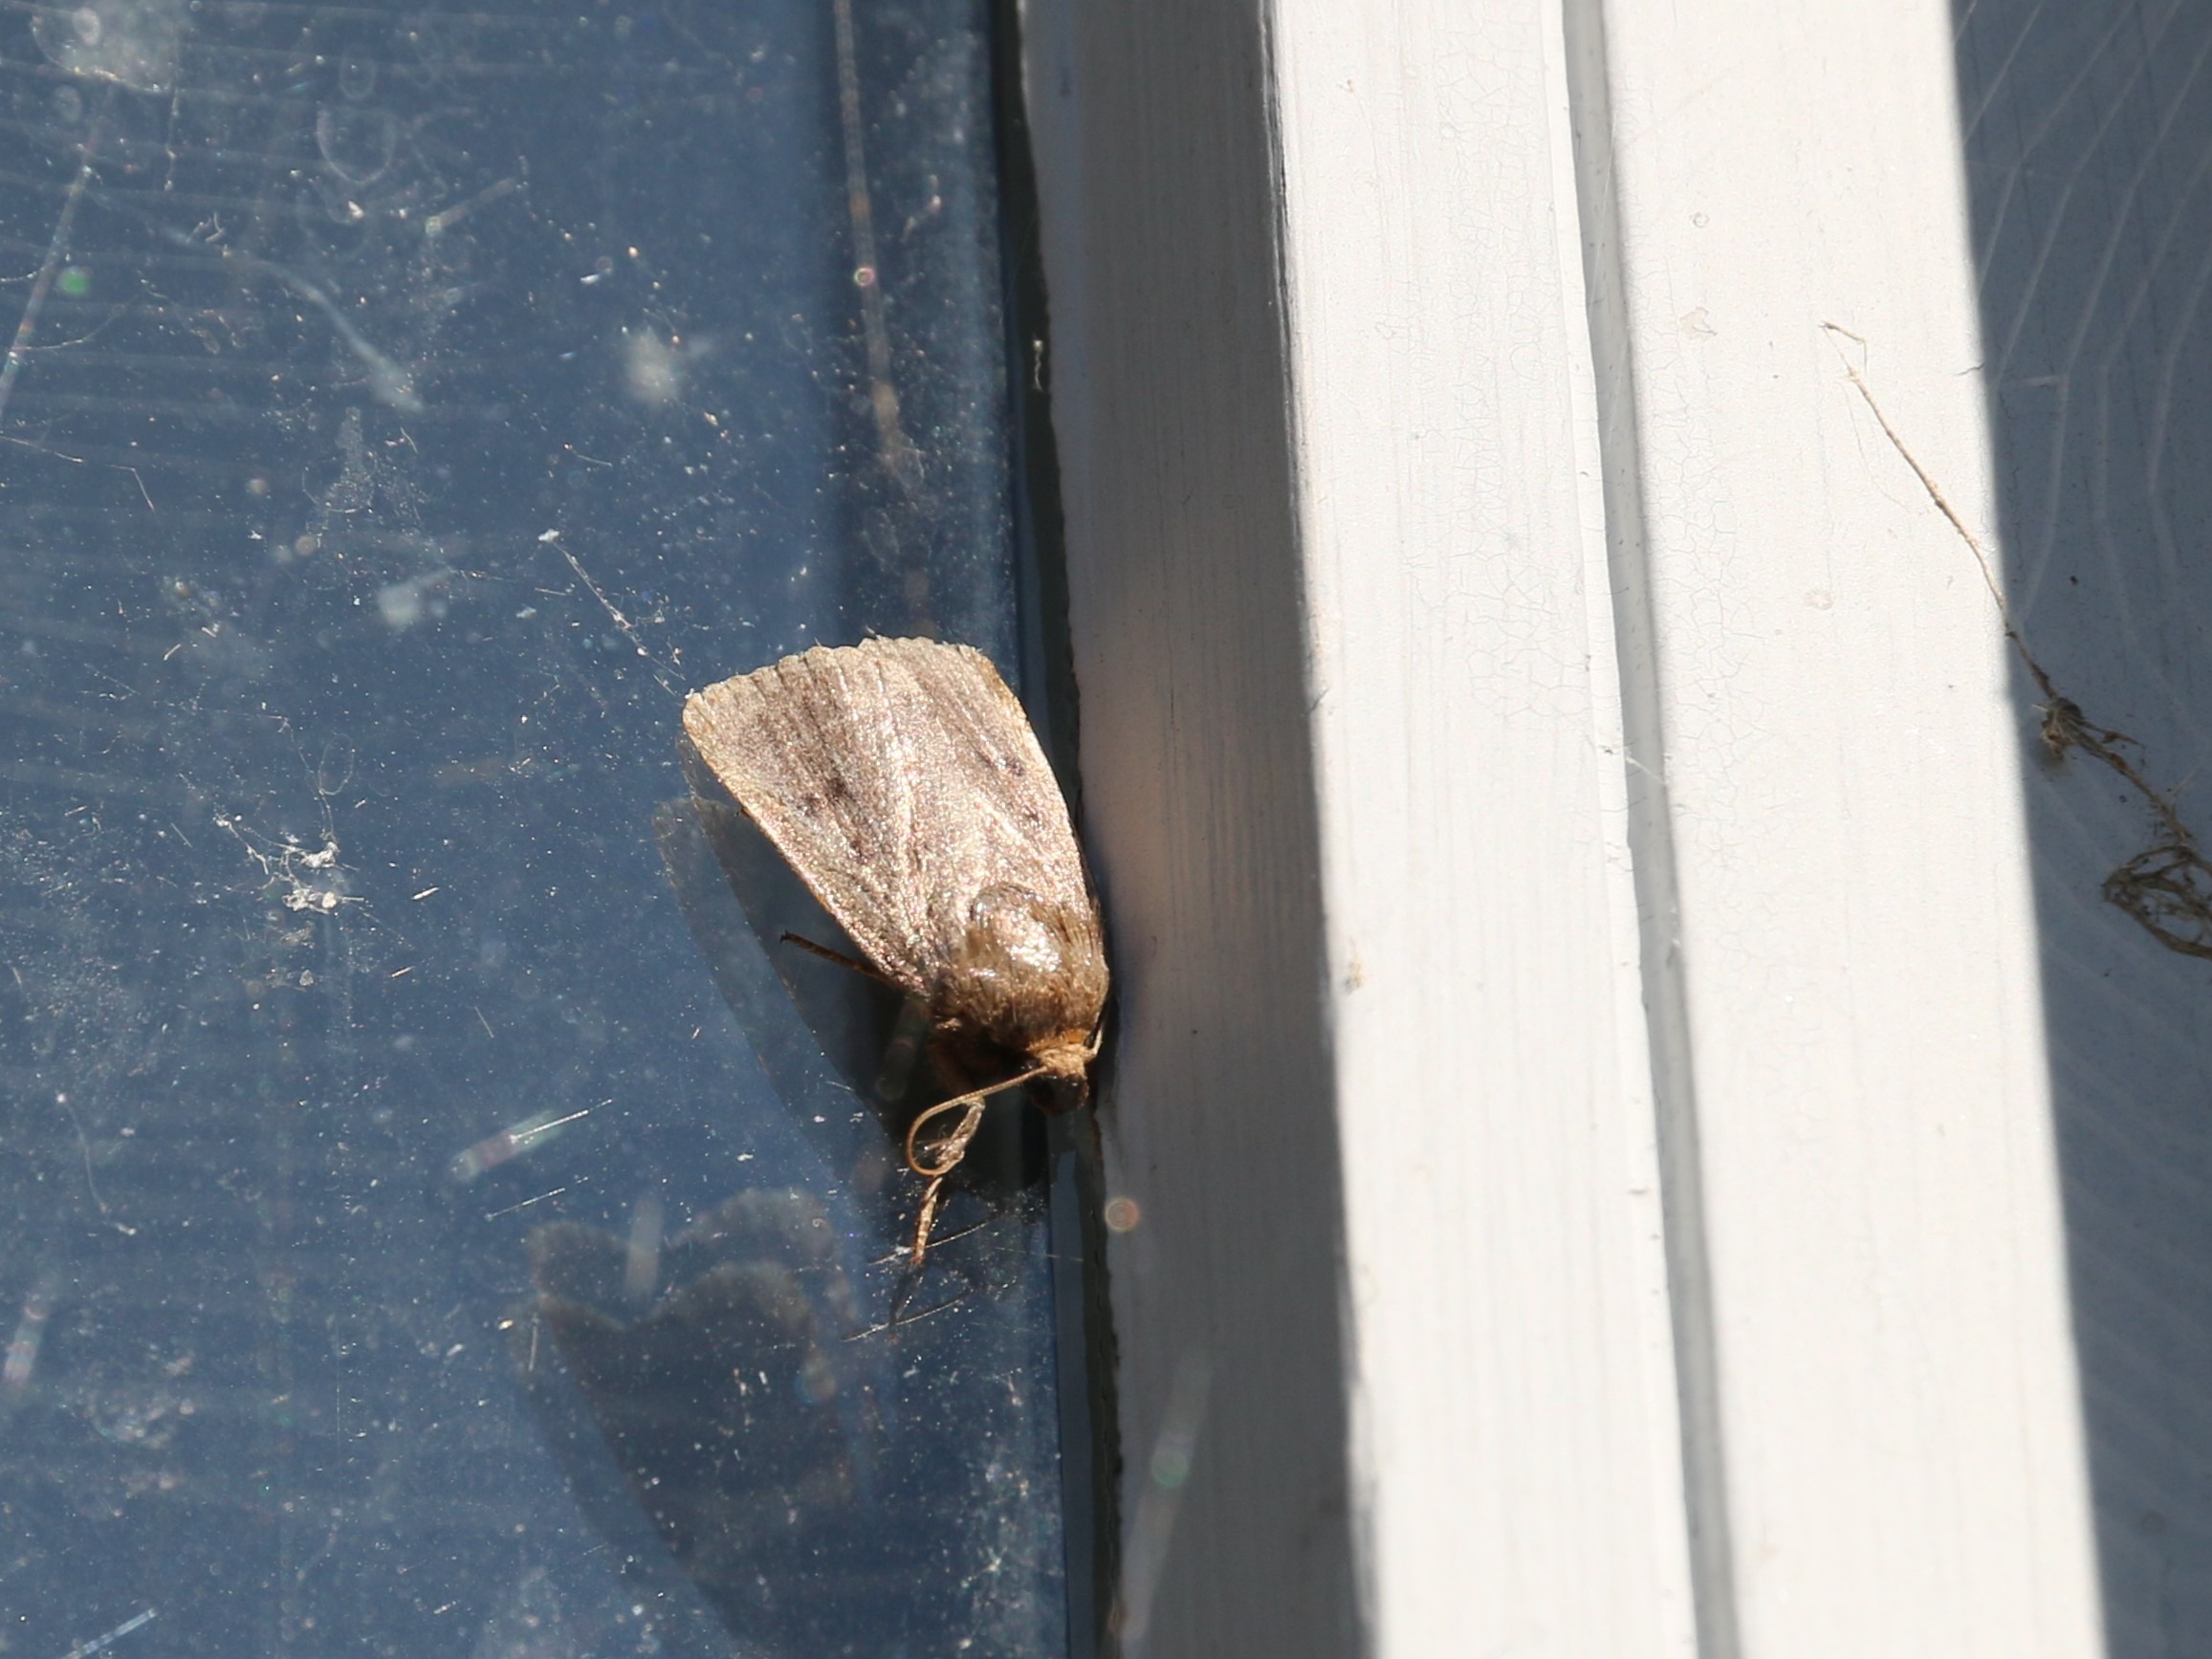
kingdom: Animalia
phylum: Arthropoda
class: Insecta
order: Lepidoptera
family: Noctuidae
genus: Amphipyra
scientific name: Amphipyra tragopoginis
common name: Blyantsugle
